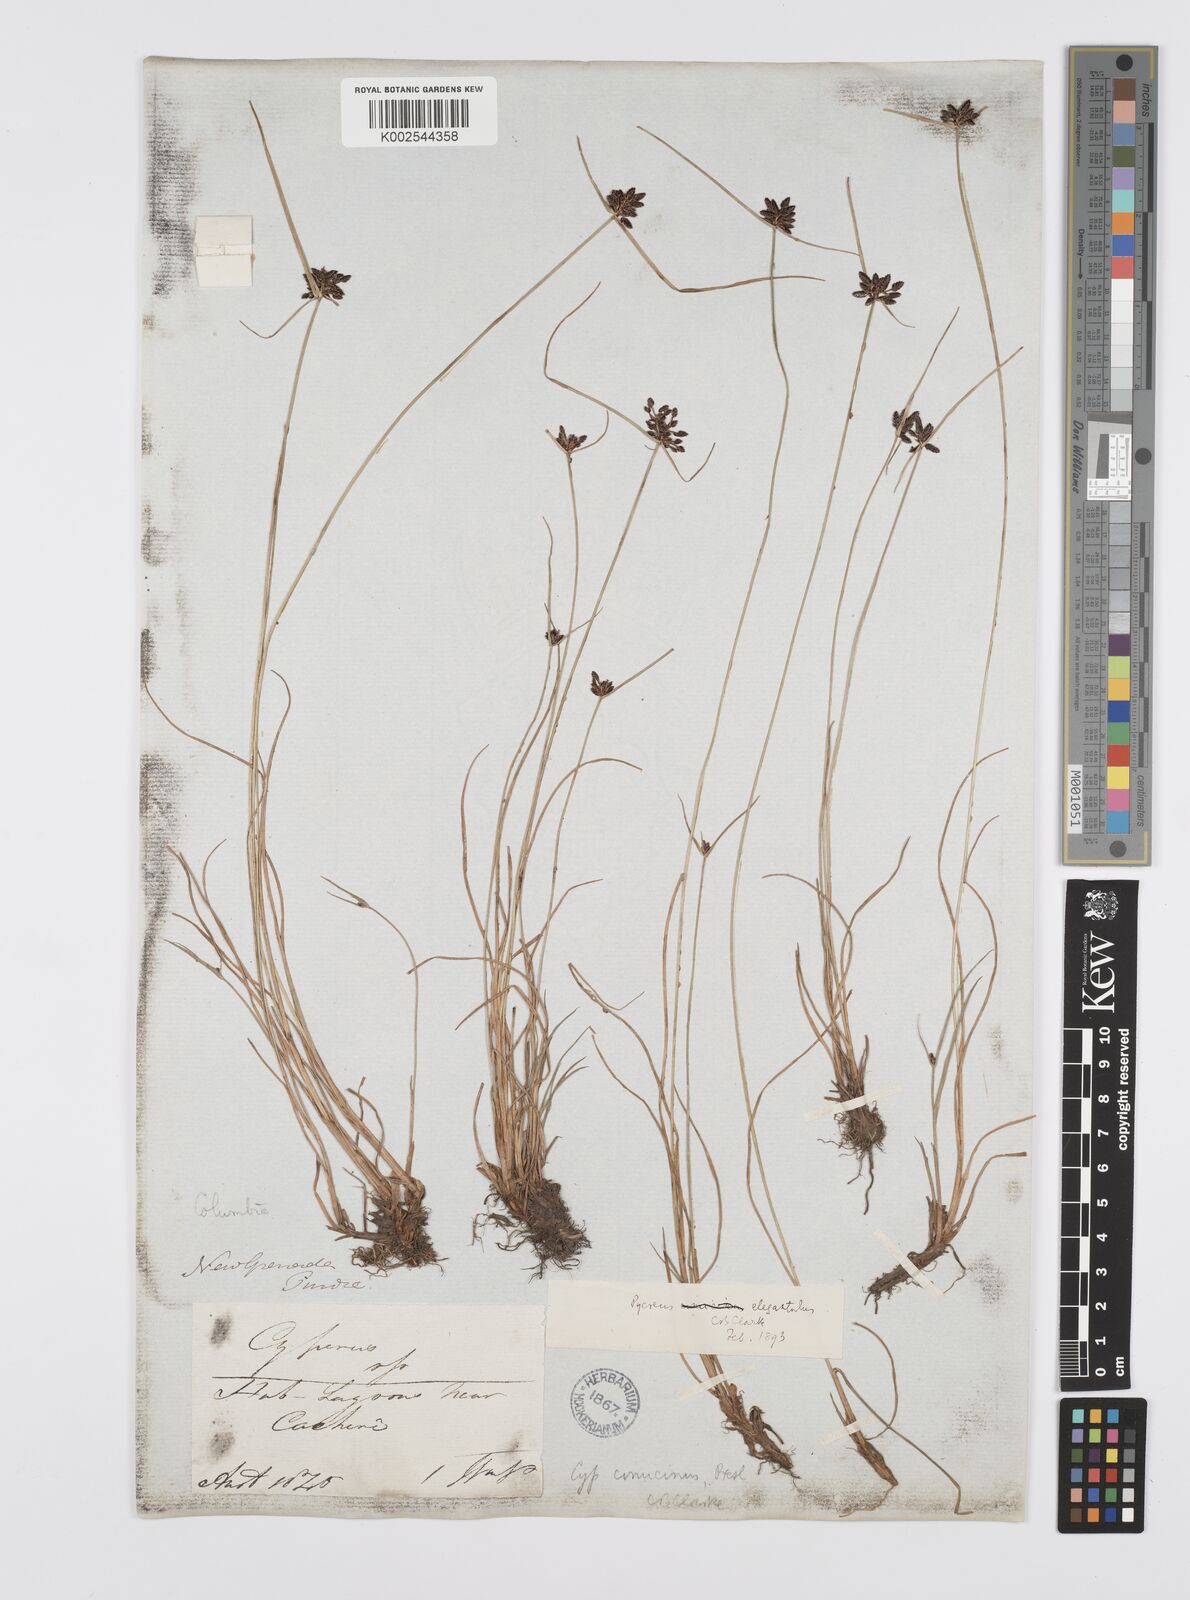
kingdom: Plantae
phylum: Tracheophyta
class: Liliopsida
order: Poales
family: Cyperaceae
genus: Cyperus
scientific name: Cyperus melanostachyus
